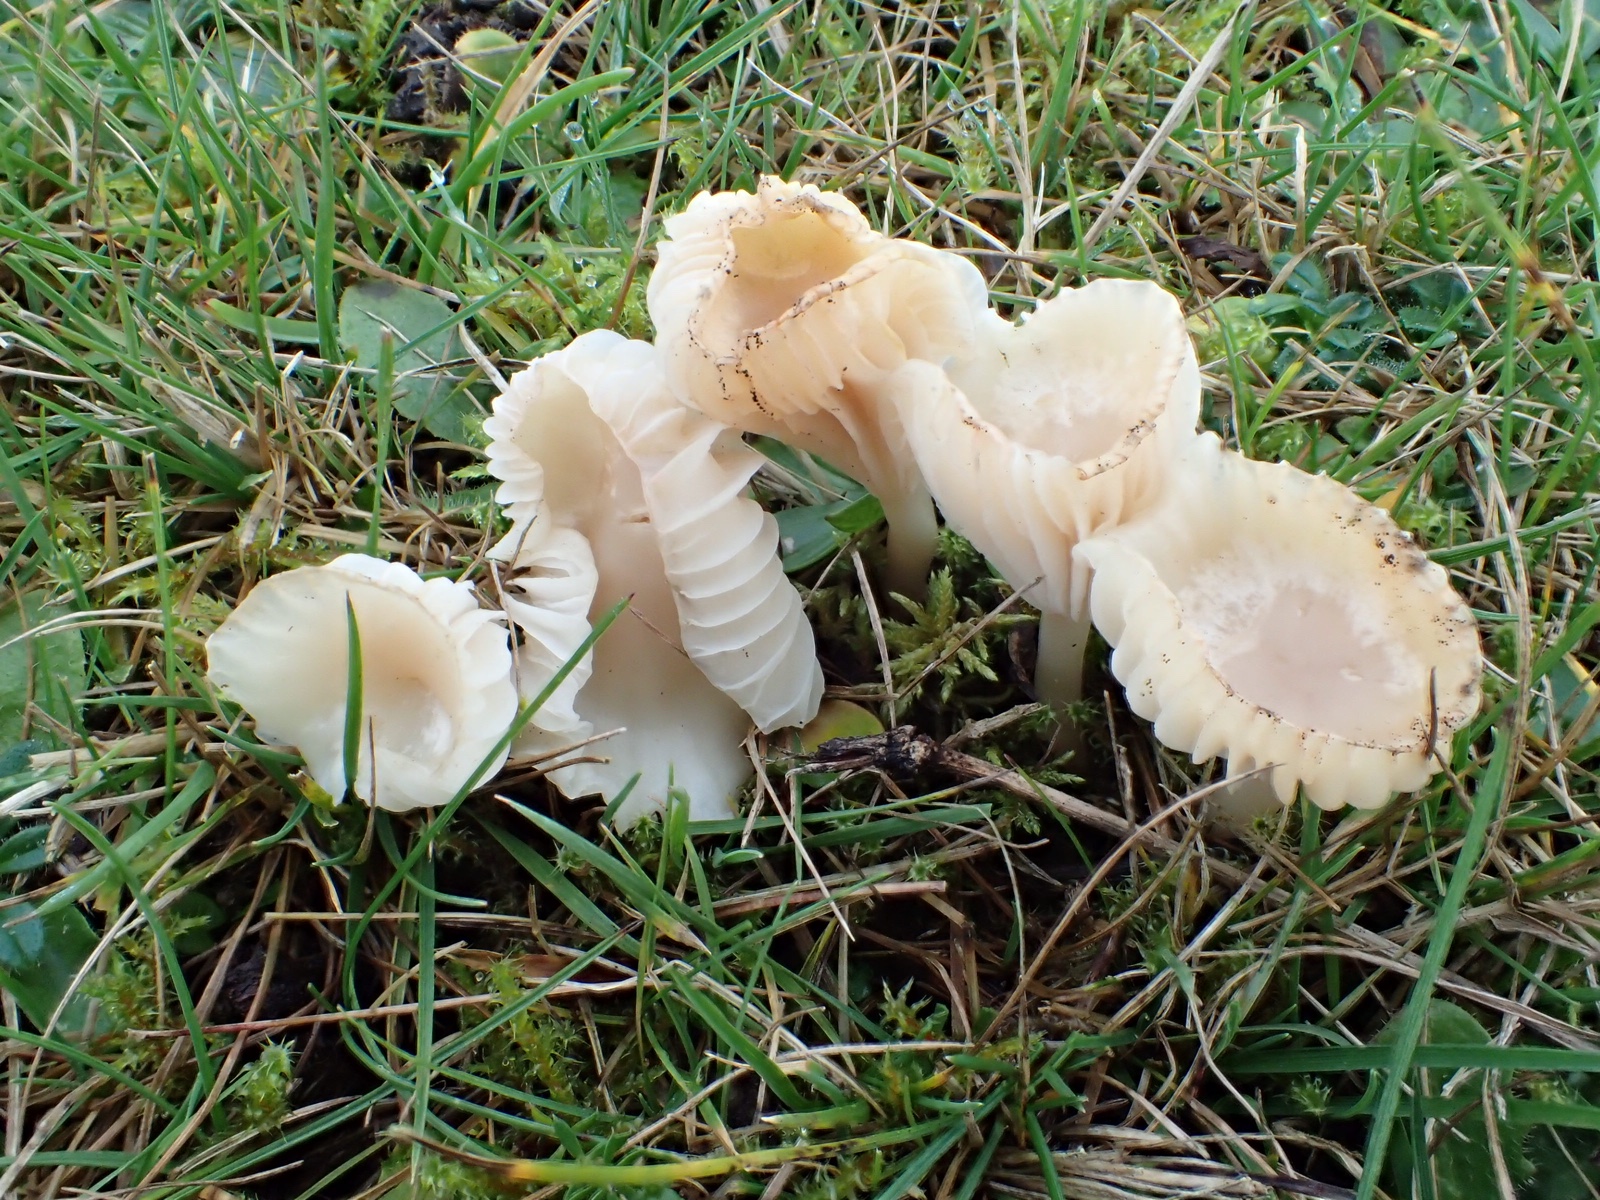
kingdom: Fungi
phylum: Basidiomycota
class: Agaricomycetes
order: Agaricales
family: Hygrophoraceae
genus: Cuphophyllus
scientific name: Cuphophyllus virgineus
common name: snehvid vokshat
